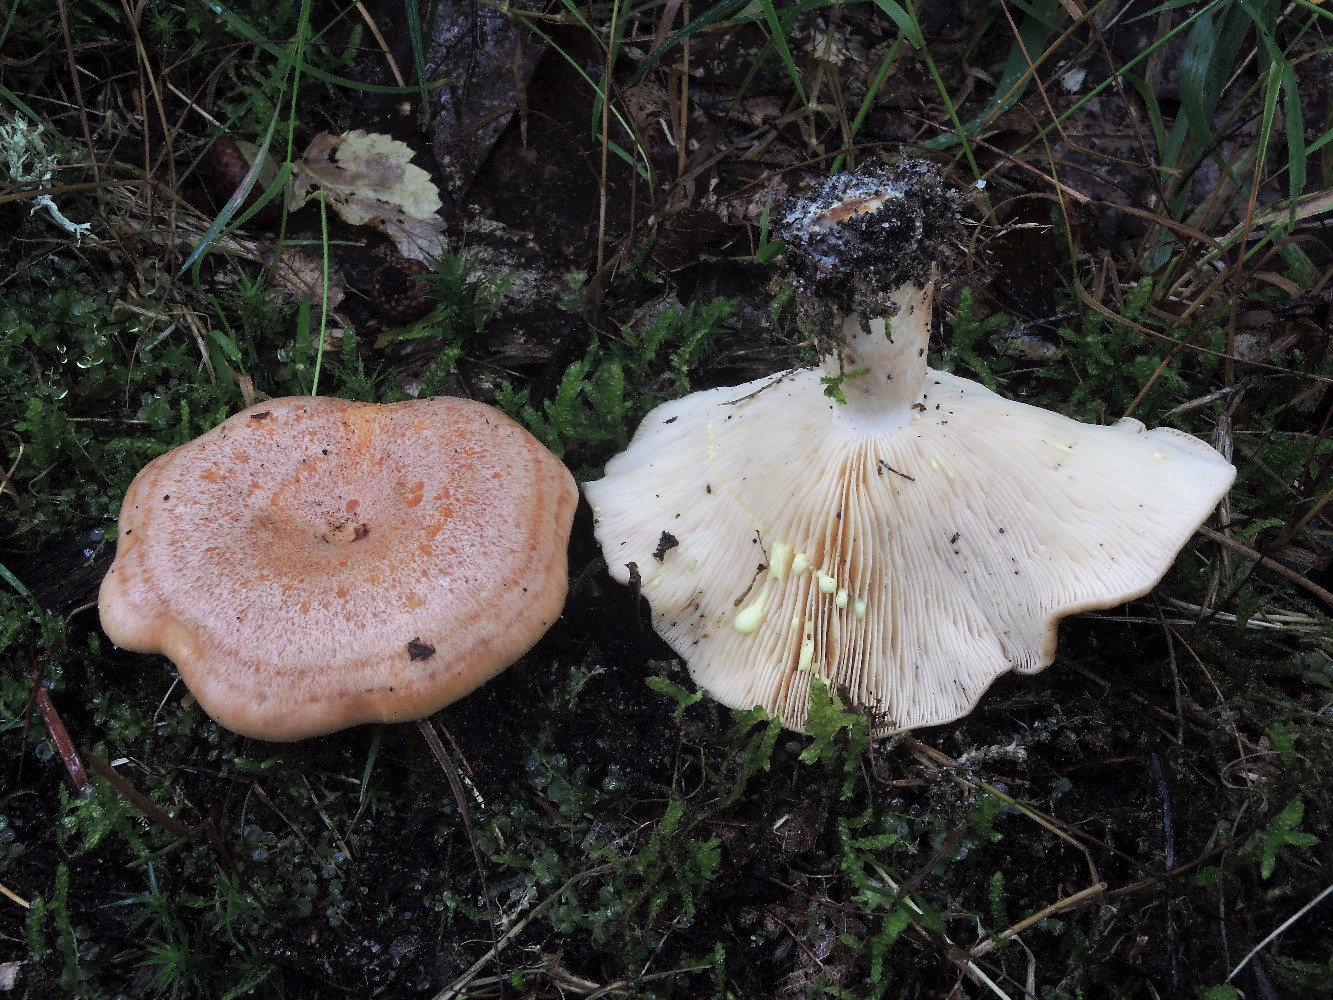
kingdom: Fungi
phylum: Basidiomycota
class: Agaricomycetes
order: Russulales
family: Russulaceae
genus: Lactarius
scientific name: Lactarius chrysorrheus
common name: svovlmælket mælkehat
